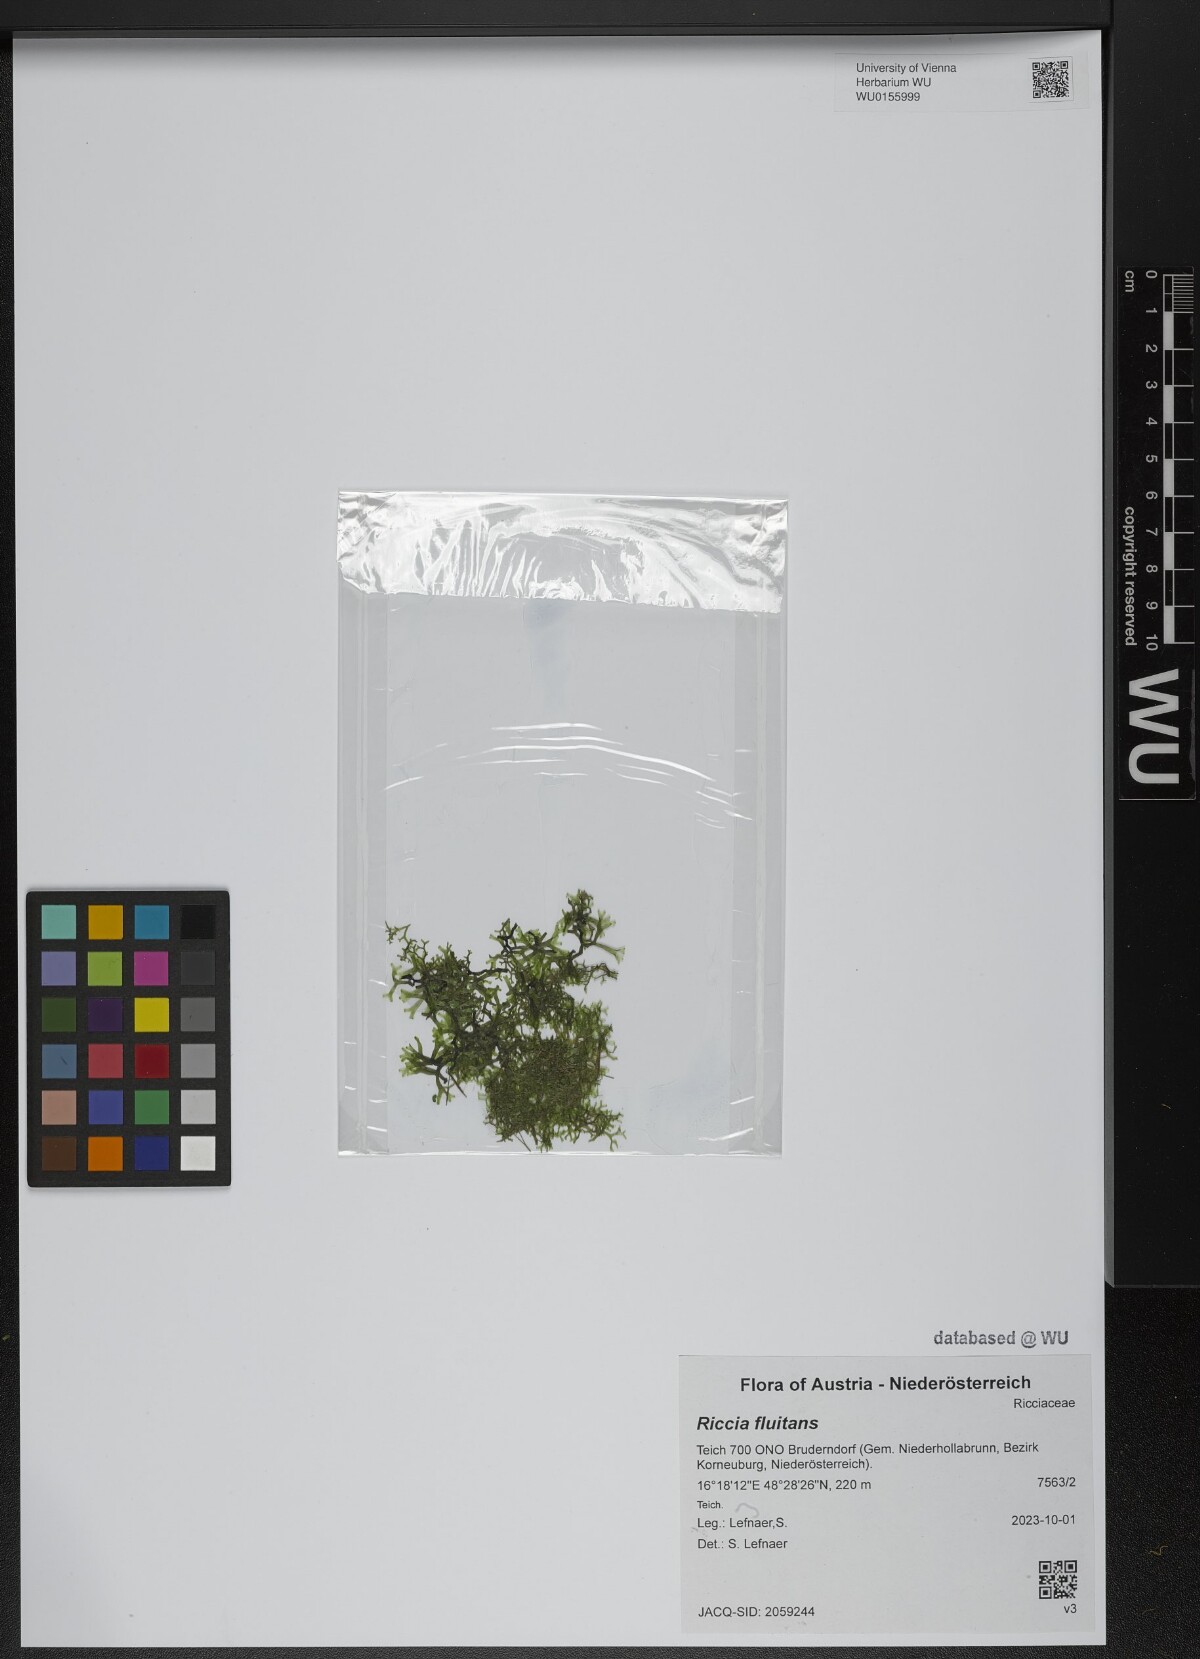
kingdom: Plantae
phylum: Marchantiophyta
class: Marchantiopsida
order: Marchantiales
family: Ricciaceae
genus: Riccia
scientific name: Riccia fluitans
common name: Floating crystalwort
